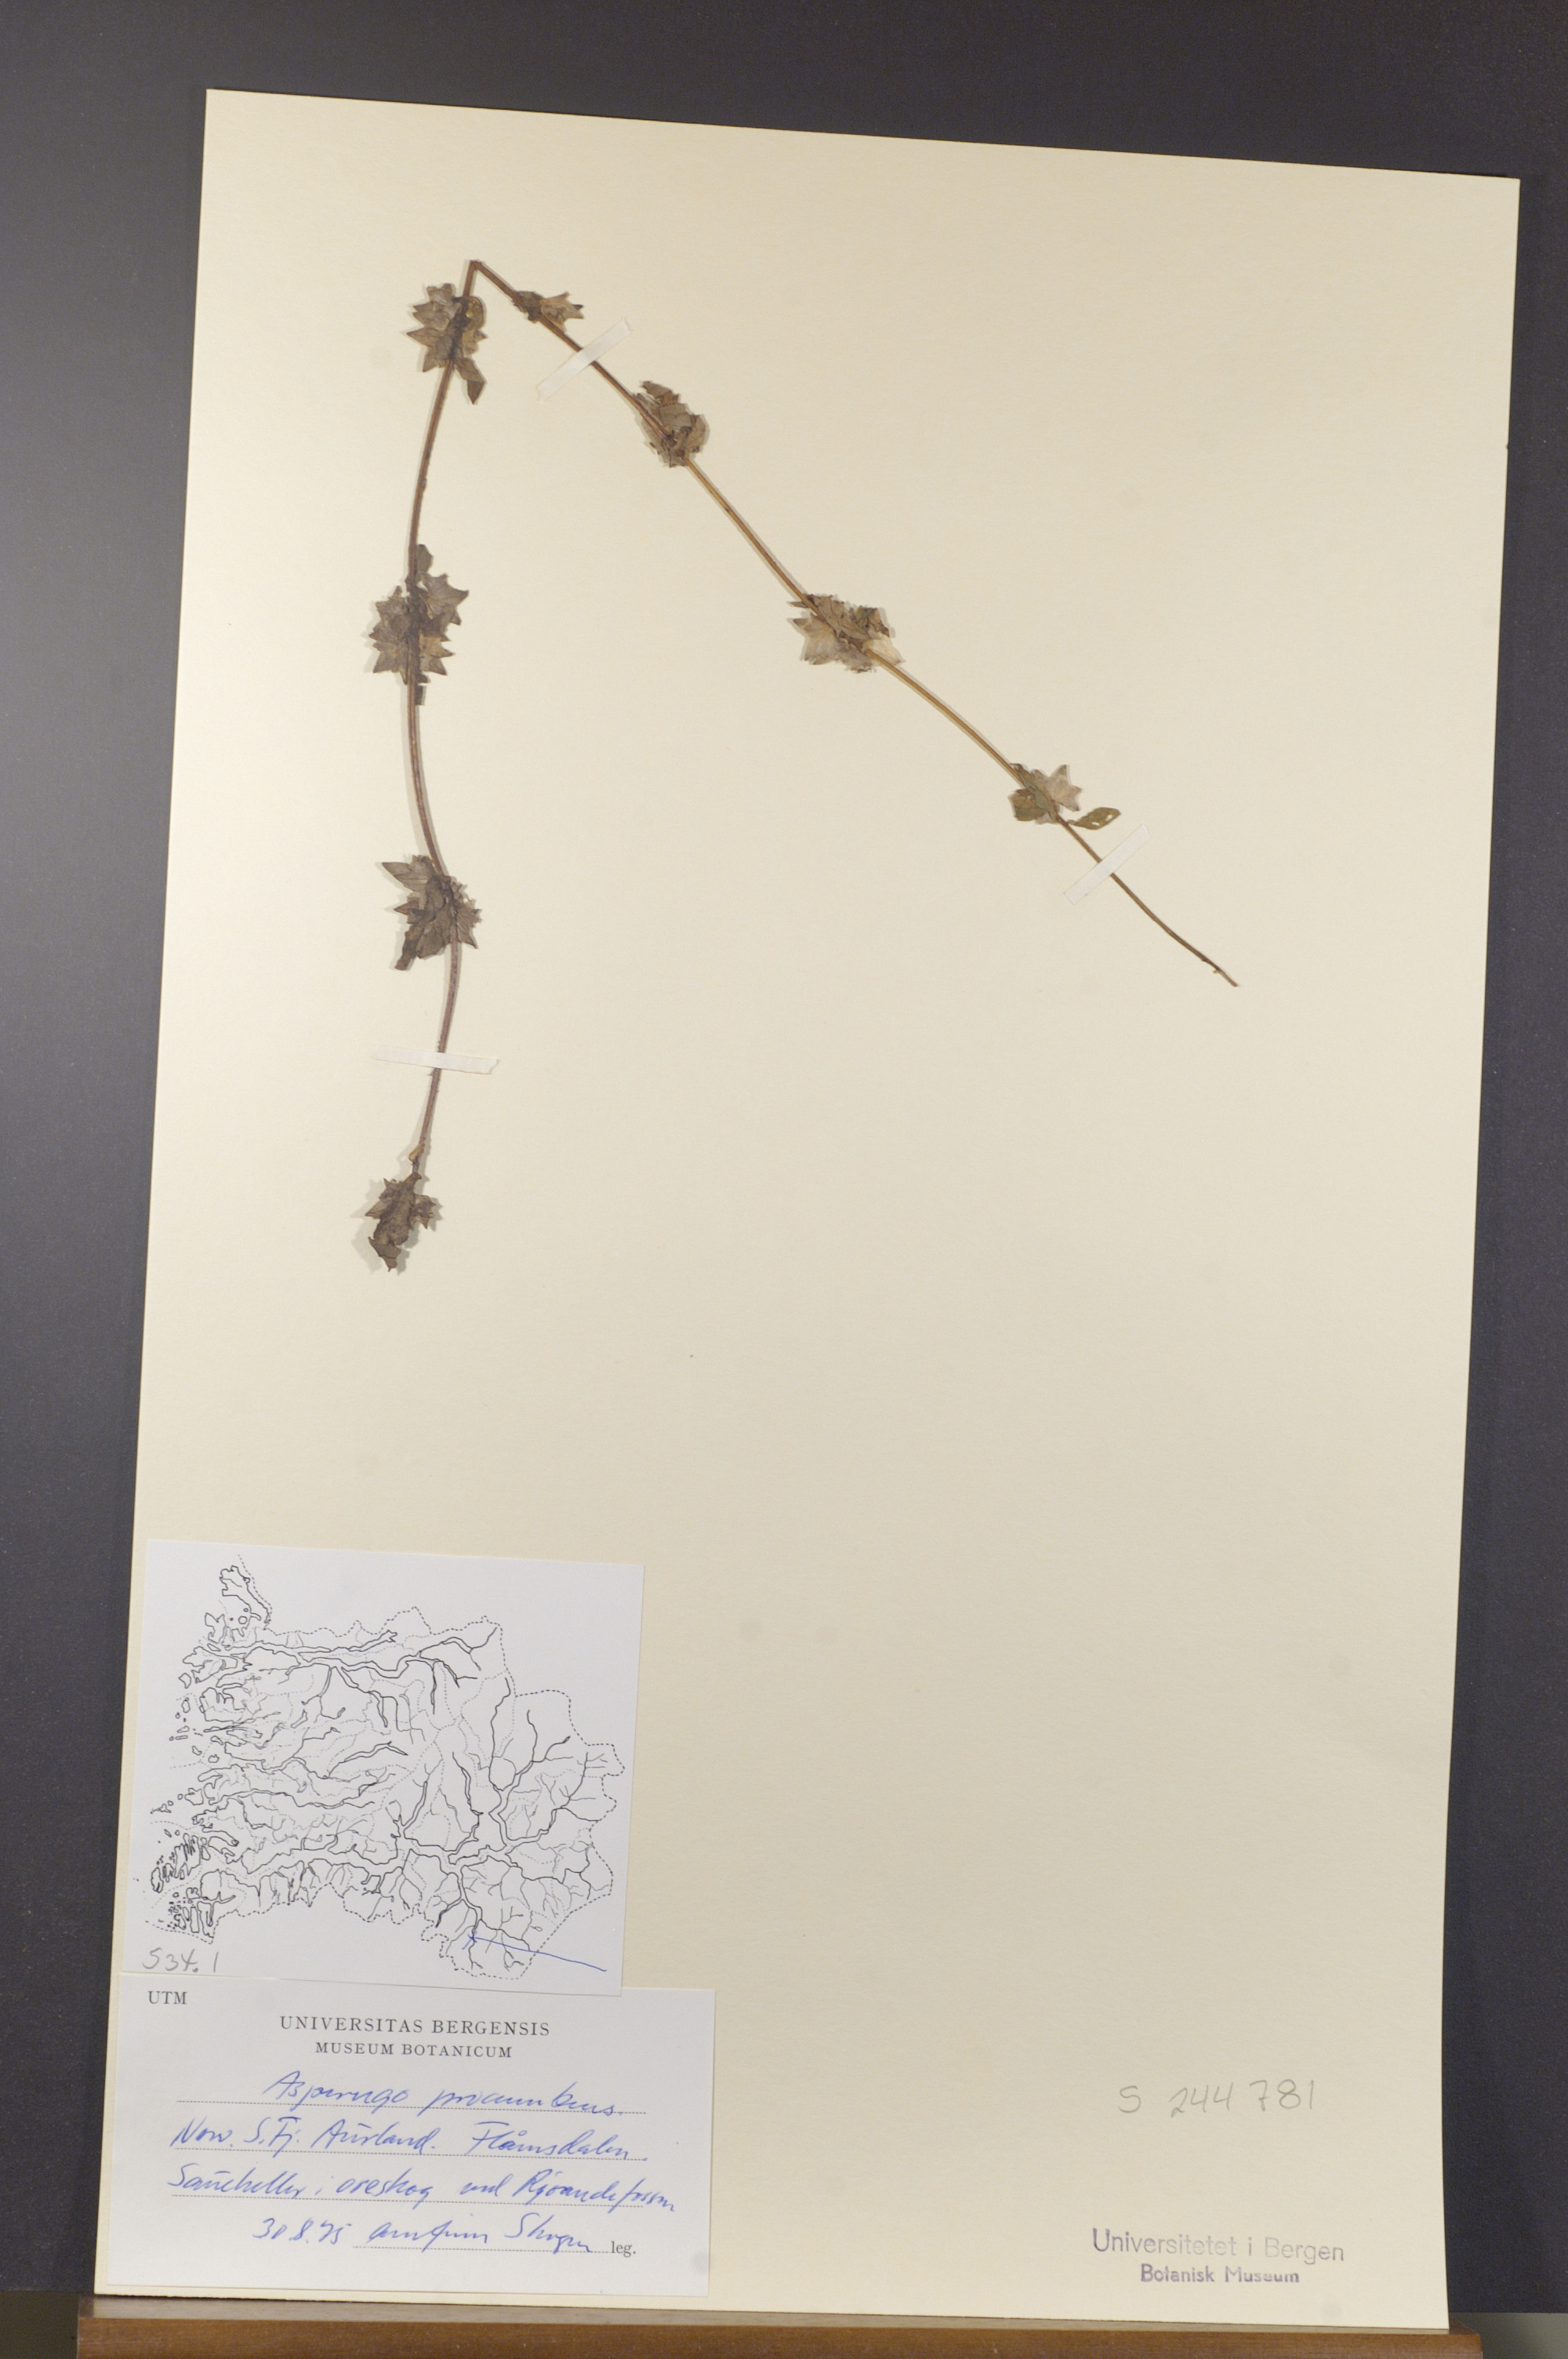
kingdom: Plantae
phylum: Tracheophyta
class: Magnoliopsida
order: Boraginales
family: Boraginaceae
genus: Asperugo
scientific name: Asperugo procumbens
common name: Madwort
